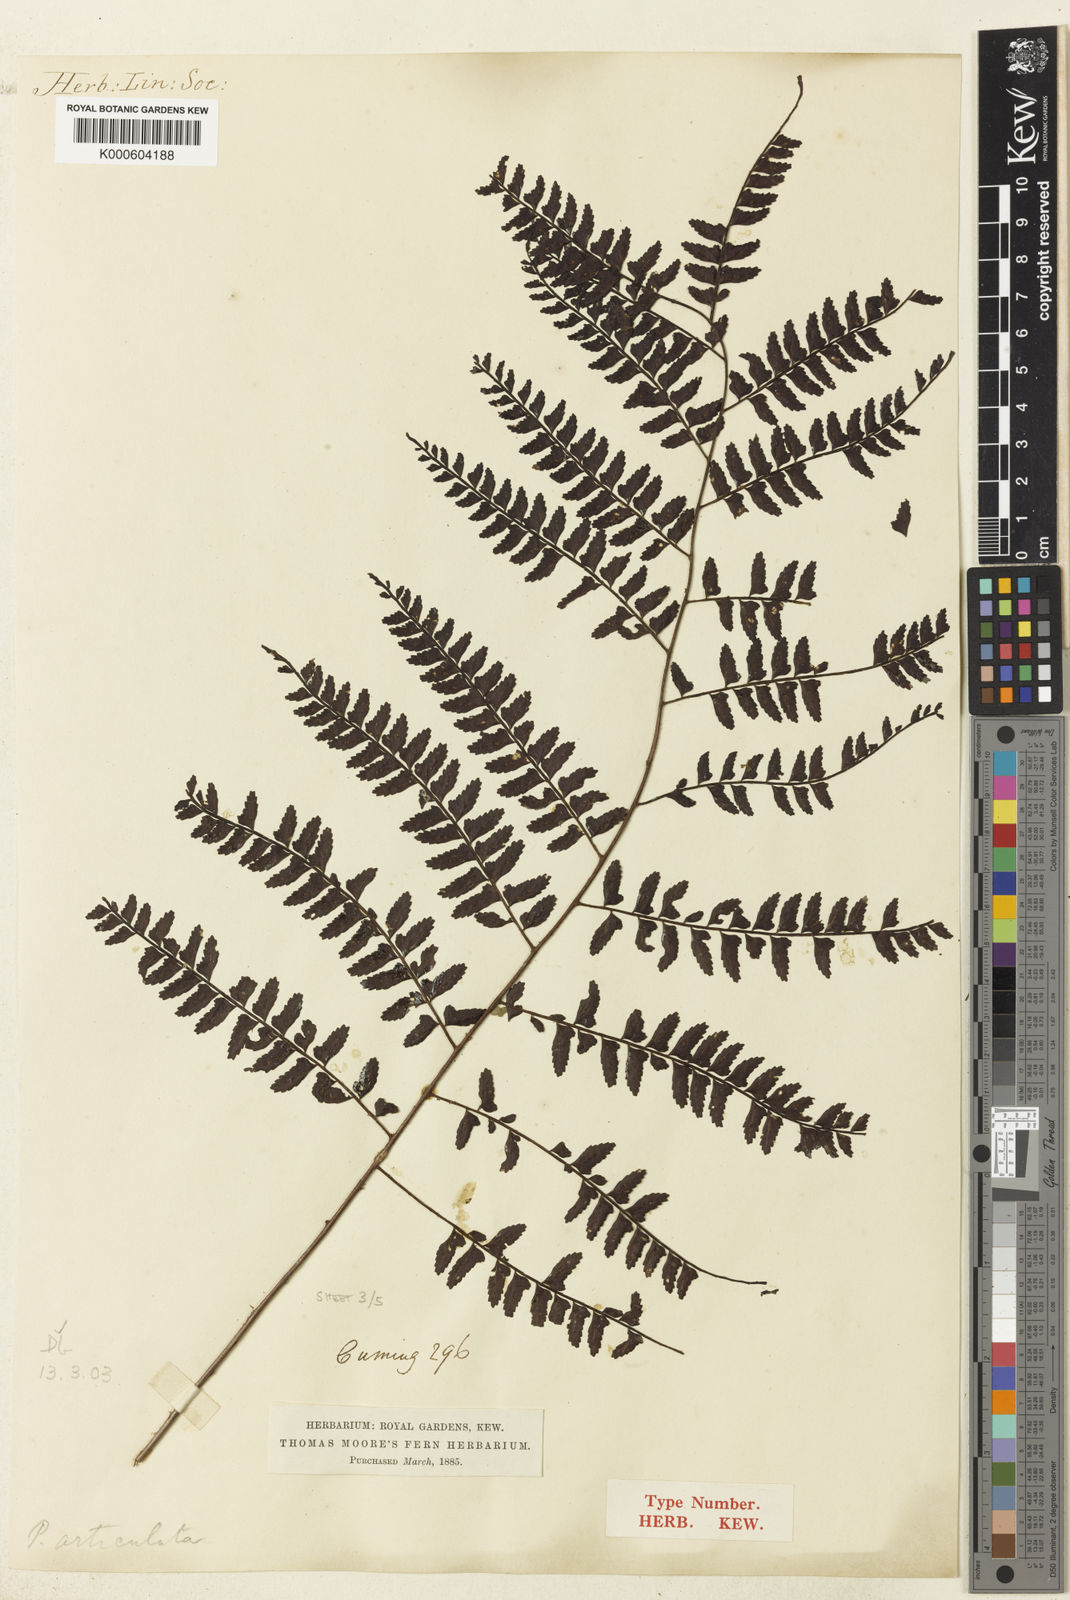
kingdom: Plantae
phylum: Tracheophyta
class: Polypodiopsida
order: Polypodiales
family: Dryopteridaceae
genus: Arthrobotrya
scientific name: Arthrobotrya articulata
